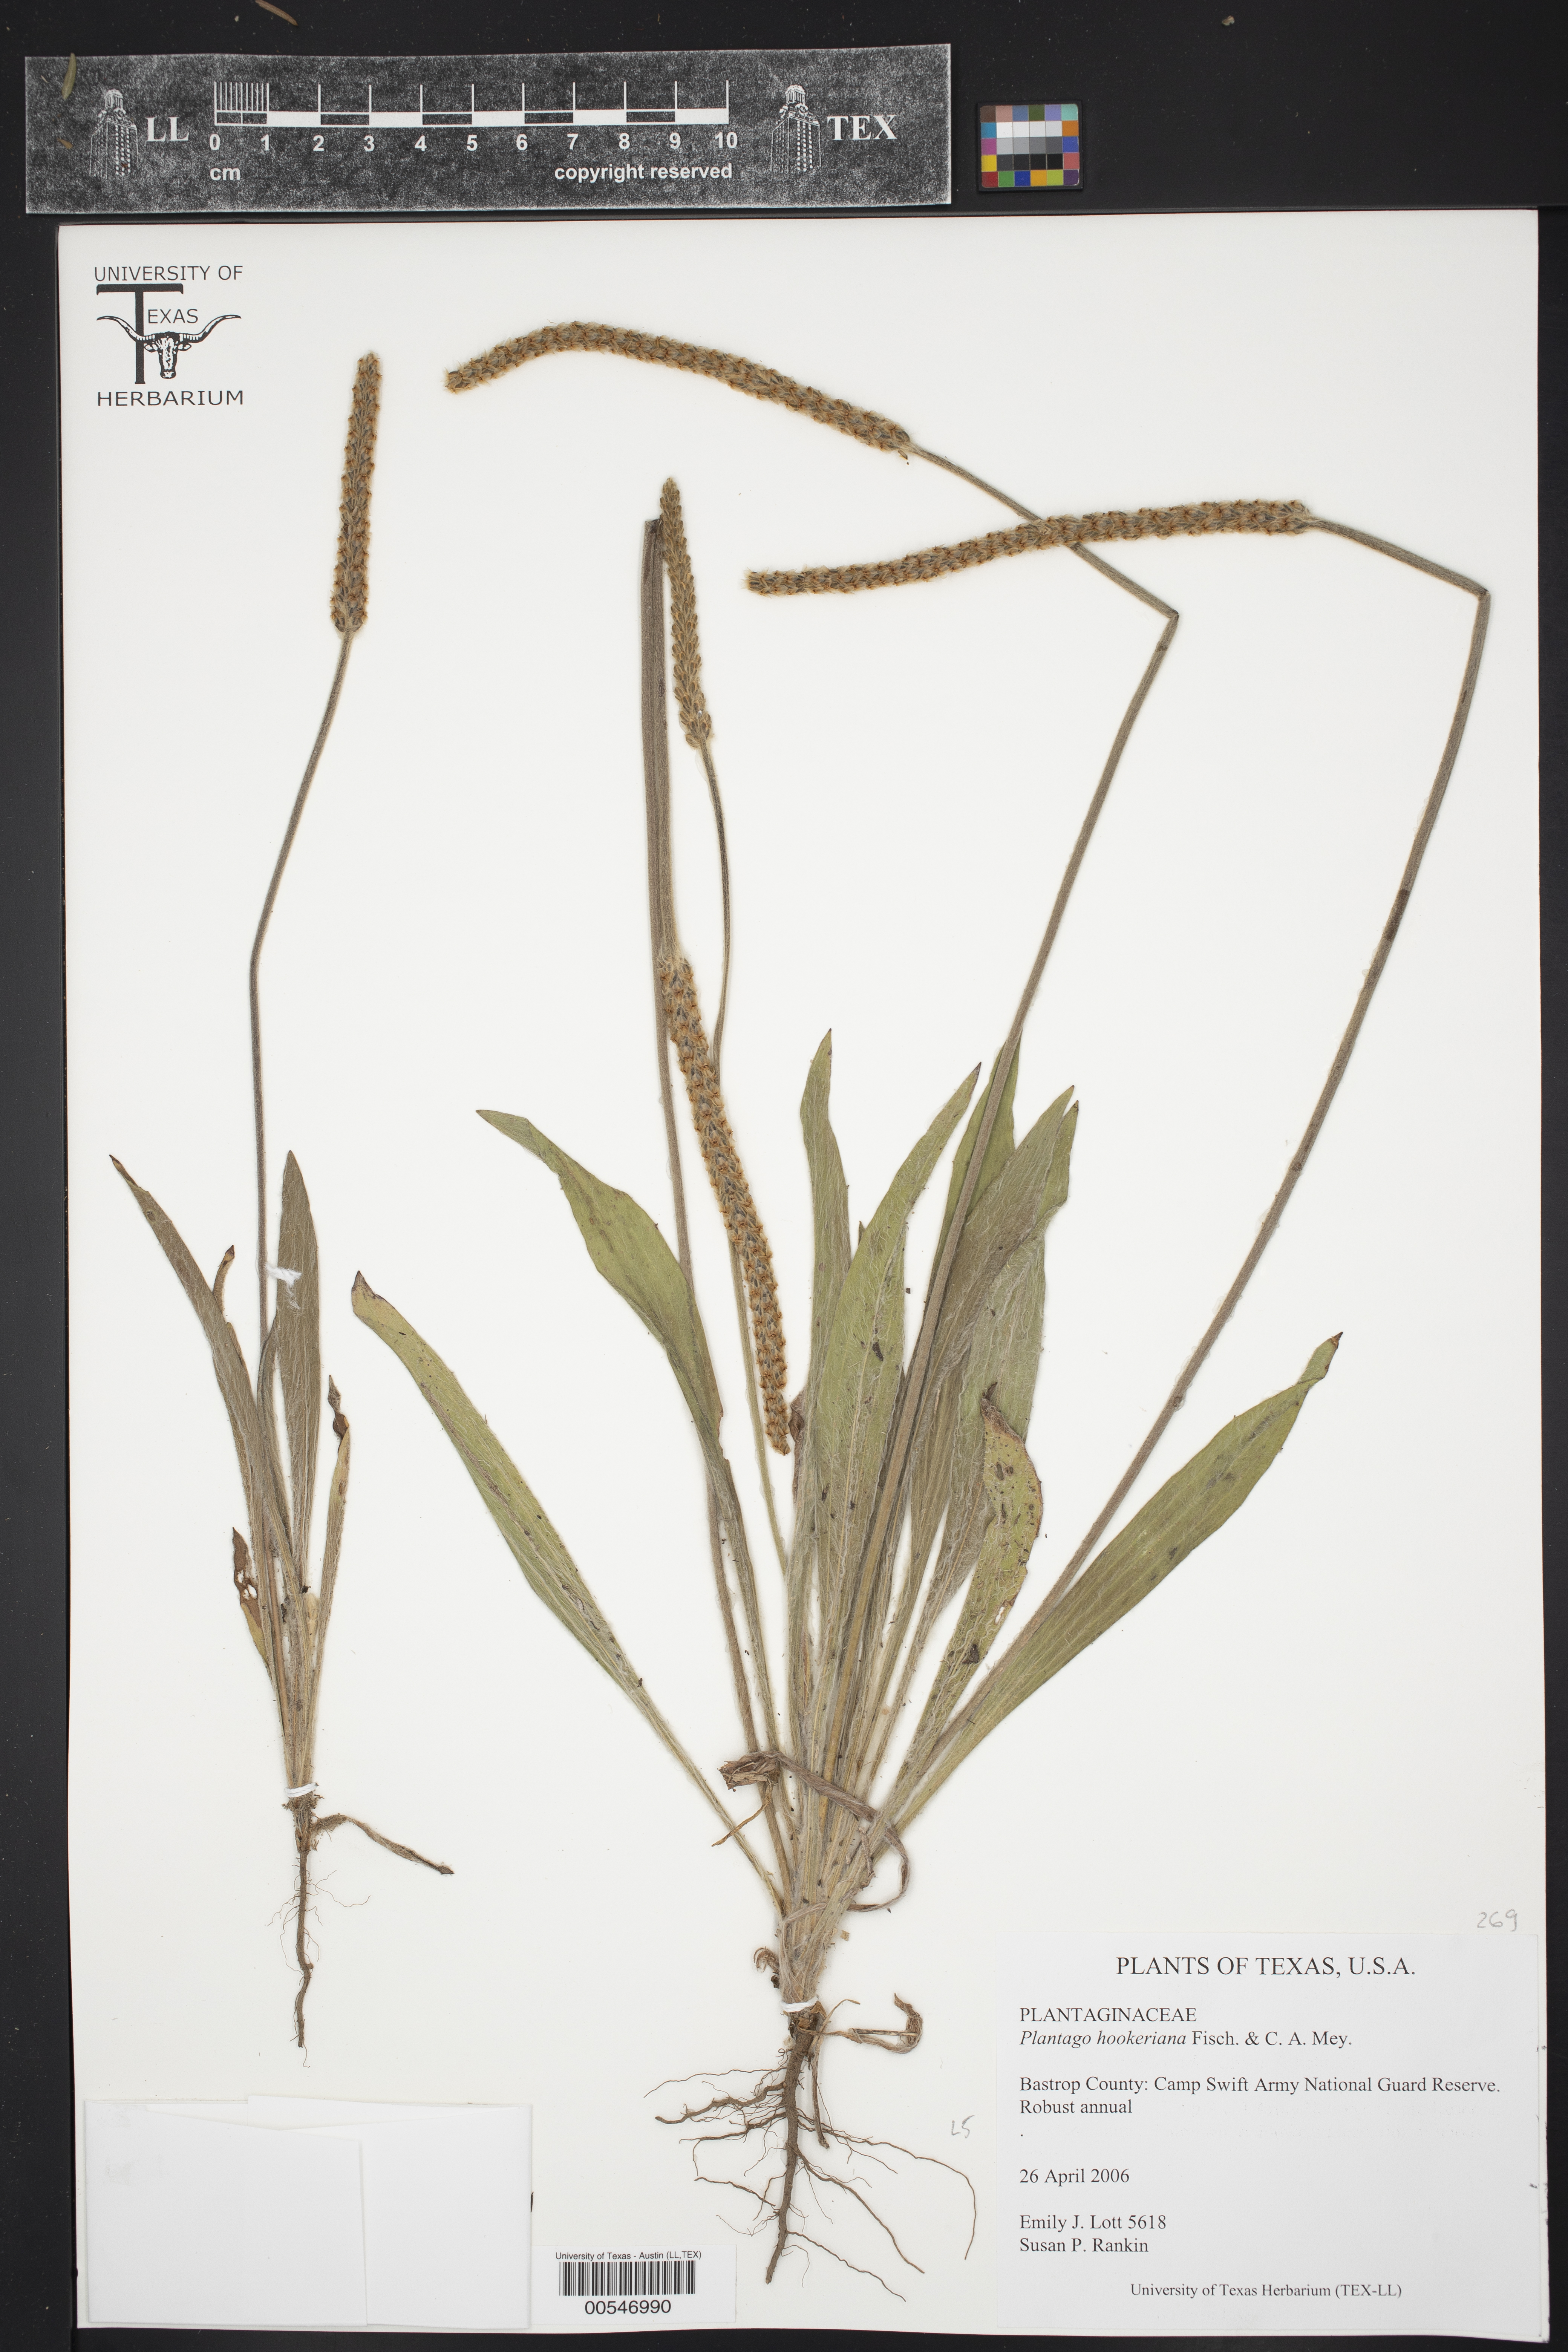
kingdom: Plantae
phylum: Tracheophyta
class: Magnoliopsida
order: Lamiales
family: Plantaginaceae
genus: Plantago
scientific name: Plantago hookeriana
